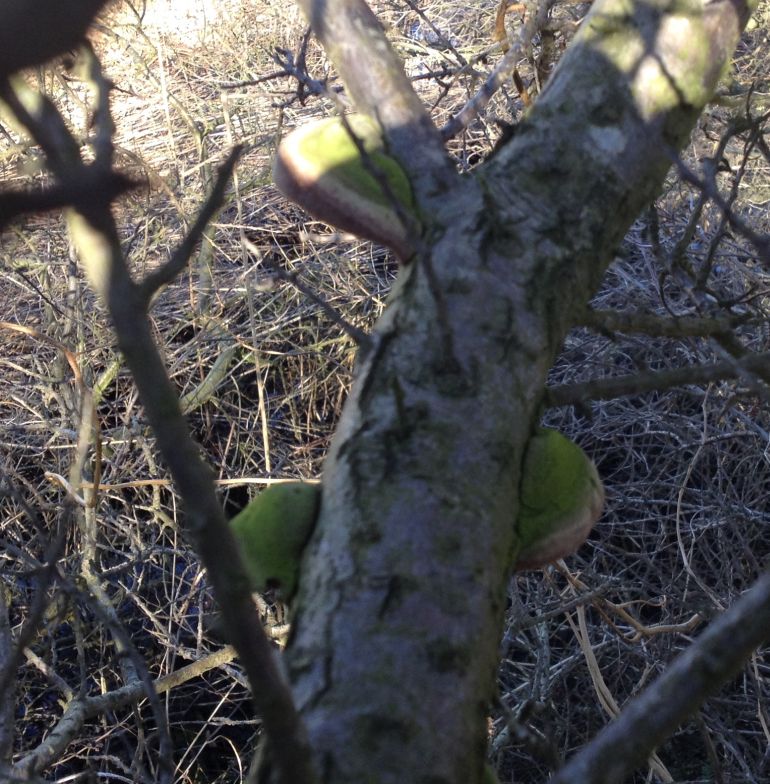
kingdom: Fungi
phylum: Basidiomycota
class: Agaricomycetes
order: Hymenochaetales
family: Hymenochaetaceae
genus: Fomitiporia
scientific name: Fomitiporia hippophaeicola
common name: havtorn-ildporesvamp
